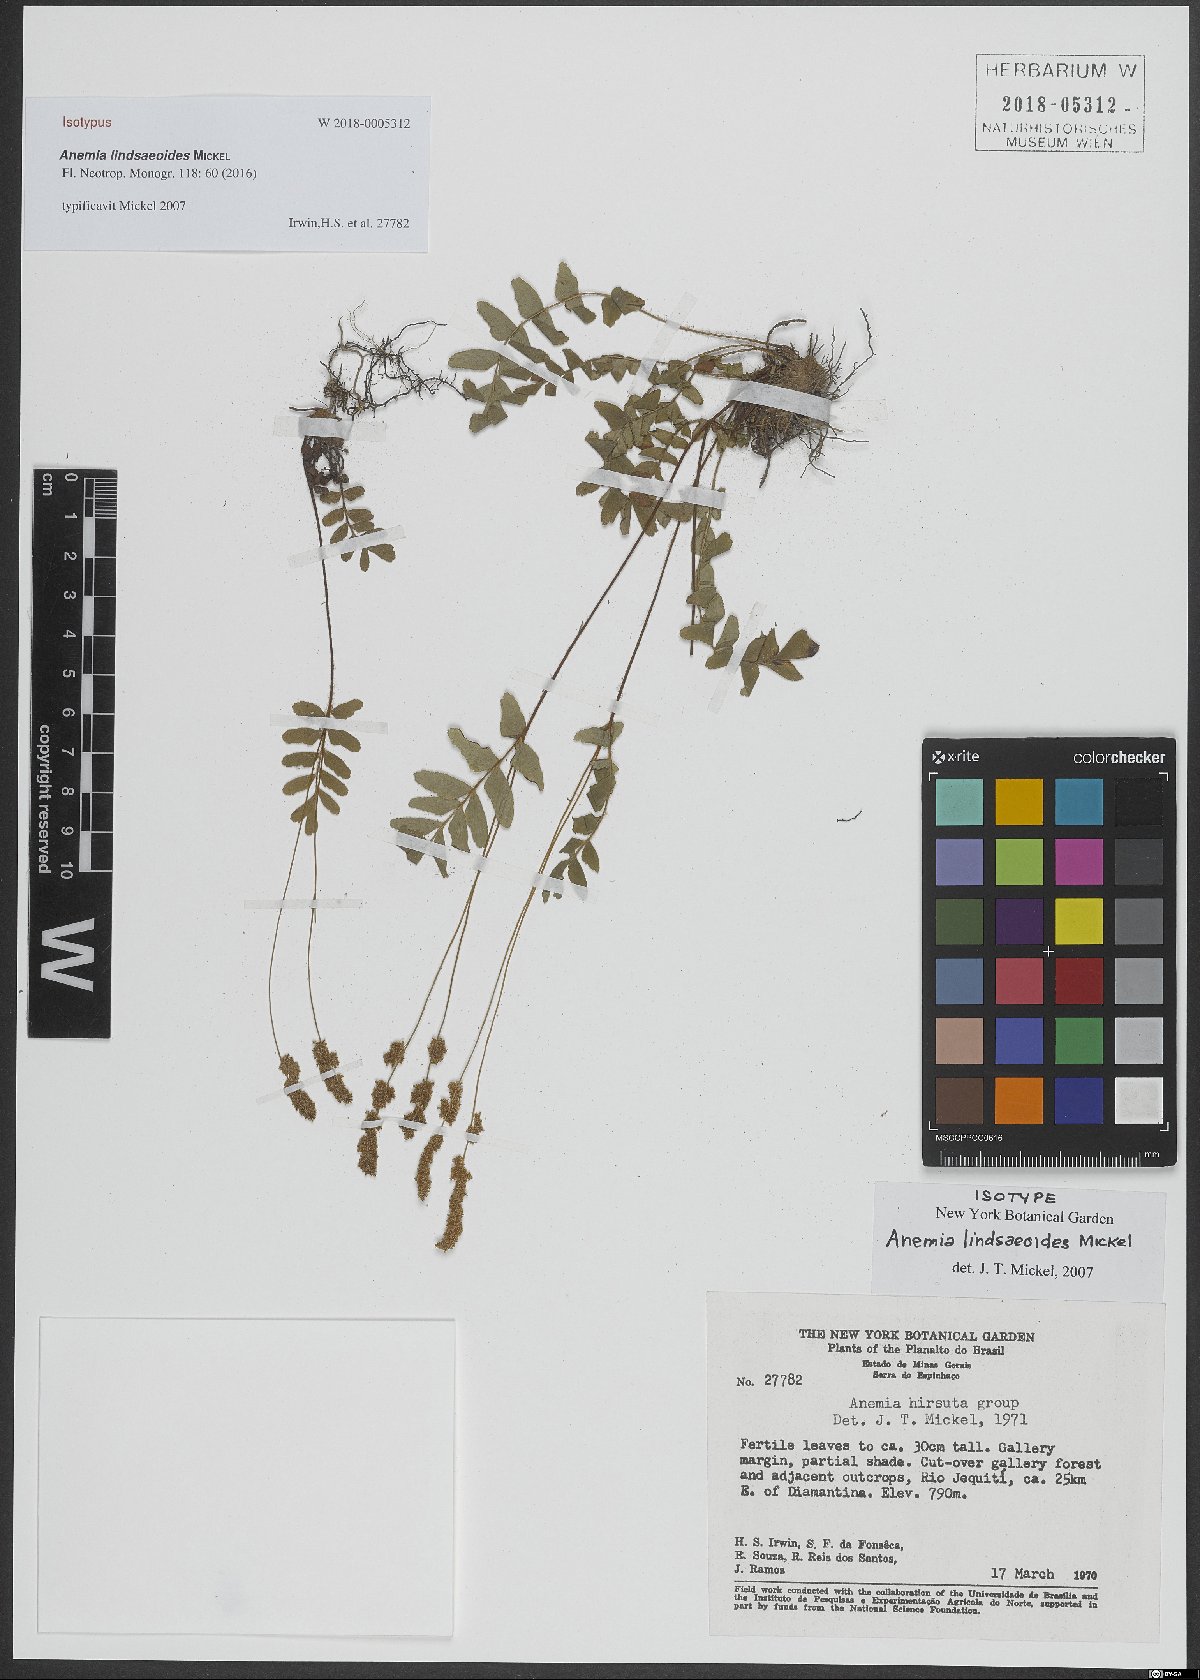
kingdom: Plantae
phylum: Tracheophyta
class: Polypodiopsida
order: Schizaeales
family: Anemiaceae
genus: Anemia
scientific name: Anemia lindsaeoides
